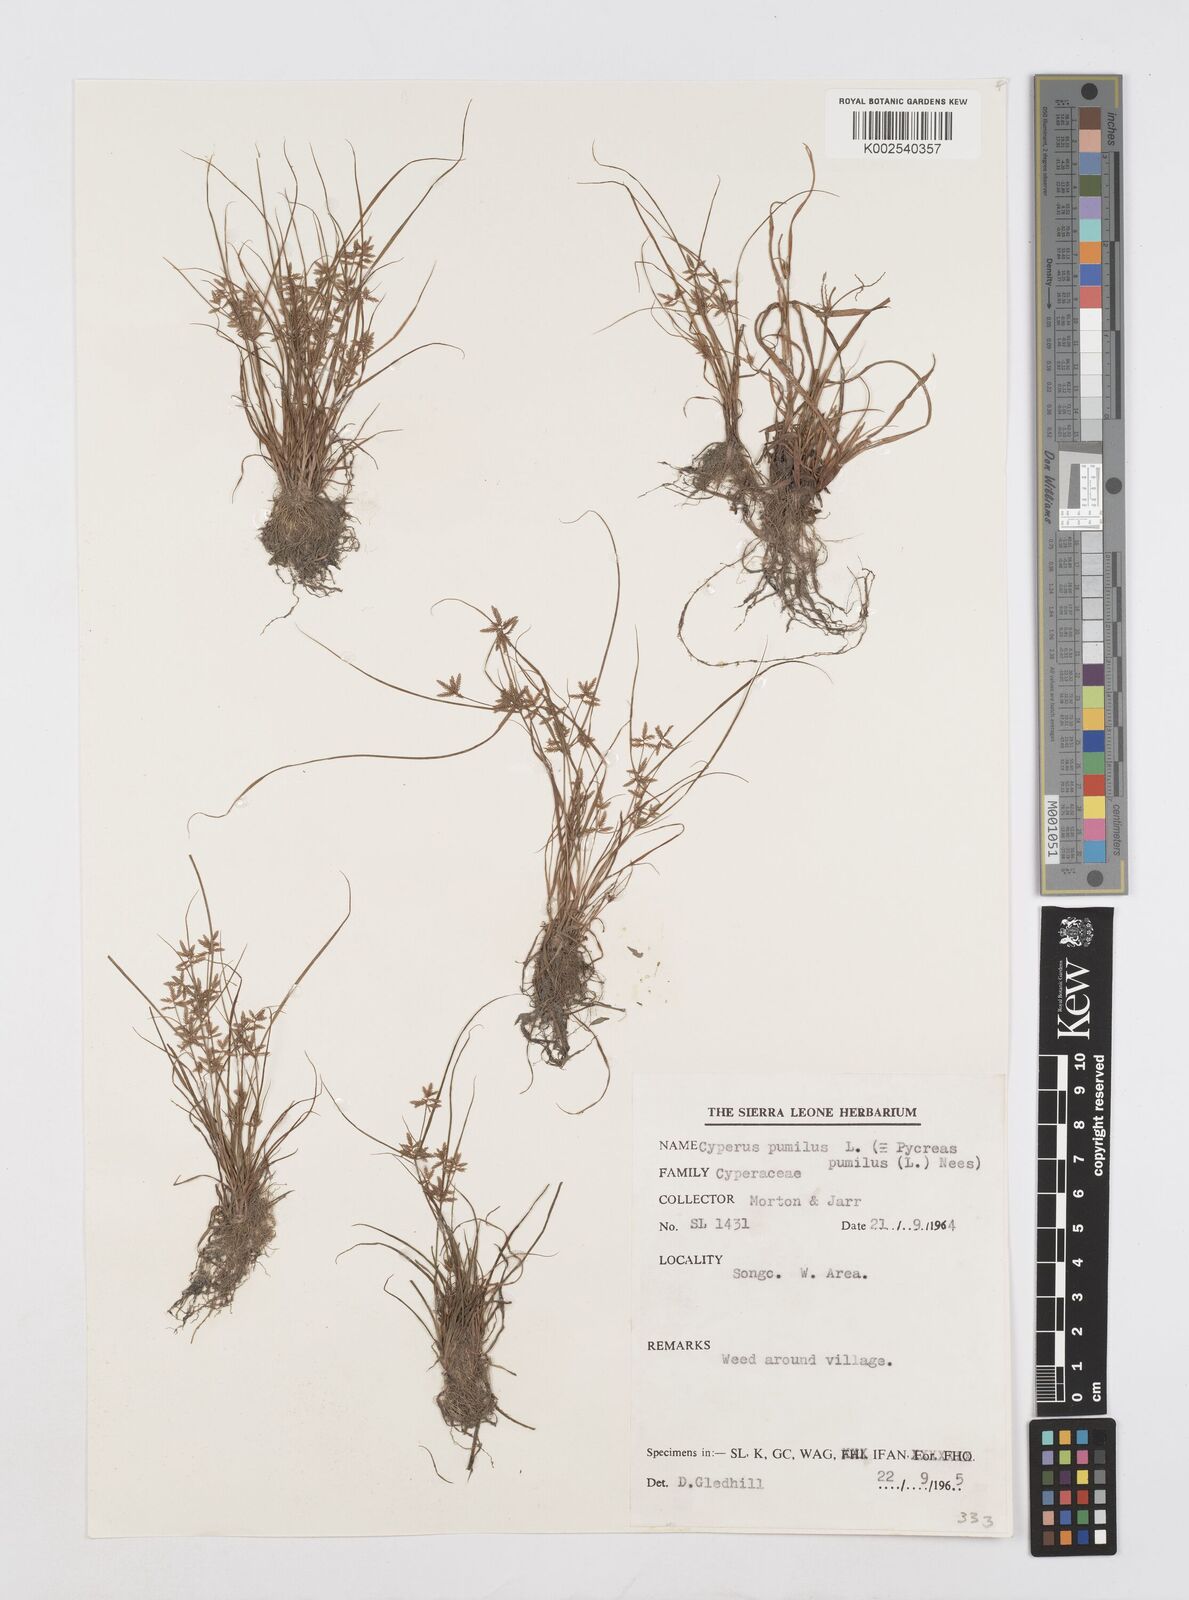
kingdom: Plantae
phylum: Tracheophyta
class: Liliopsida
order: Poales
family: Cyperaceae
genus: Cyperus
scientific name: Cyperus pumilus
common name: Low flatsedge
